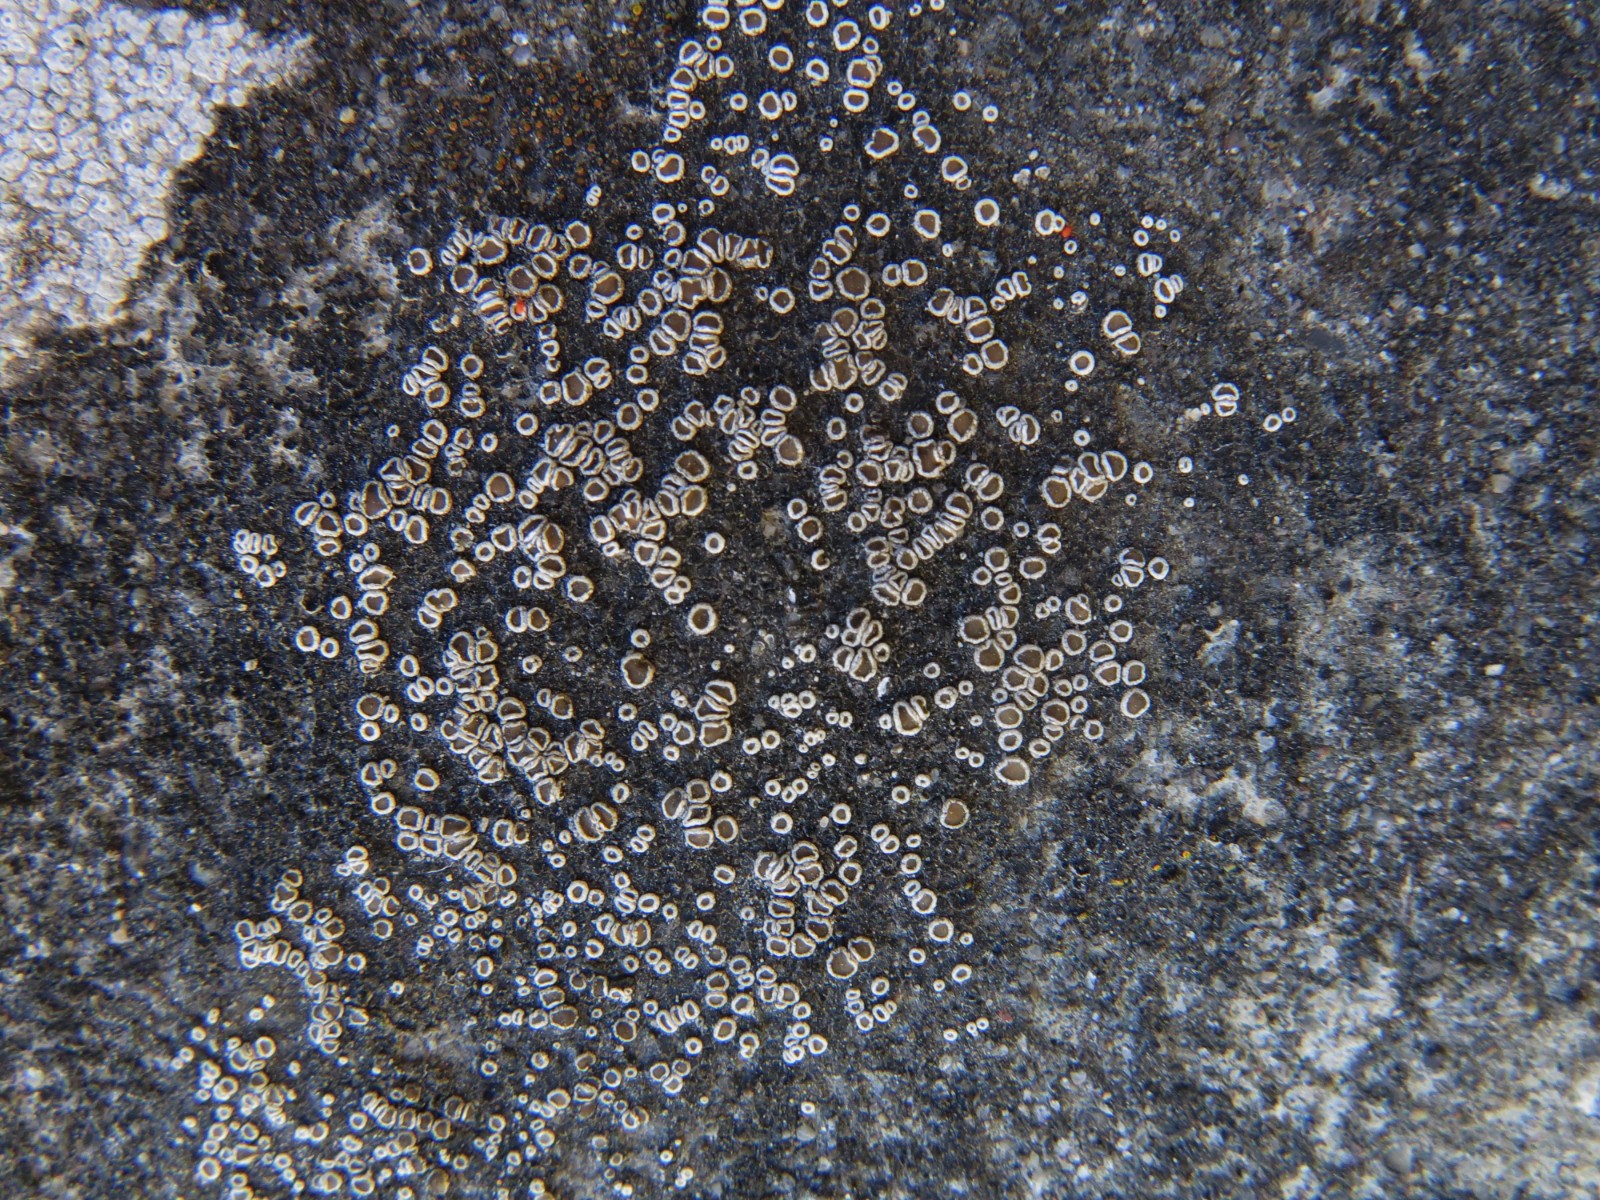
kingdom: Fungi
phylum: Ascomycota
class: Lecanoromycetes
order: Lecanorales
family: Lecanoraceae
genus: Polyozosia
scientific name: Polyozosia dispersa
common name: spredt kantskivelav
